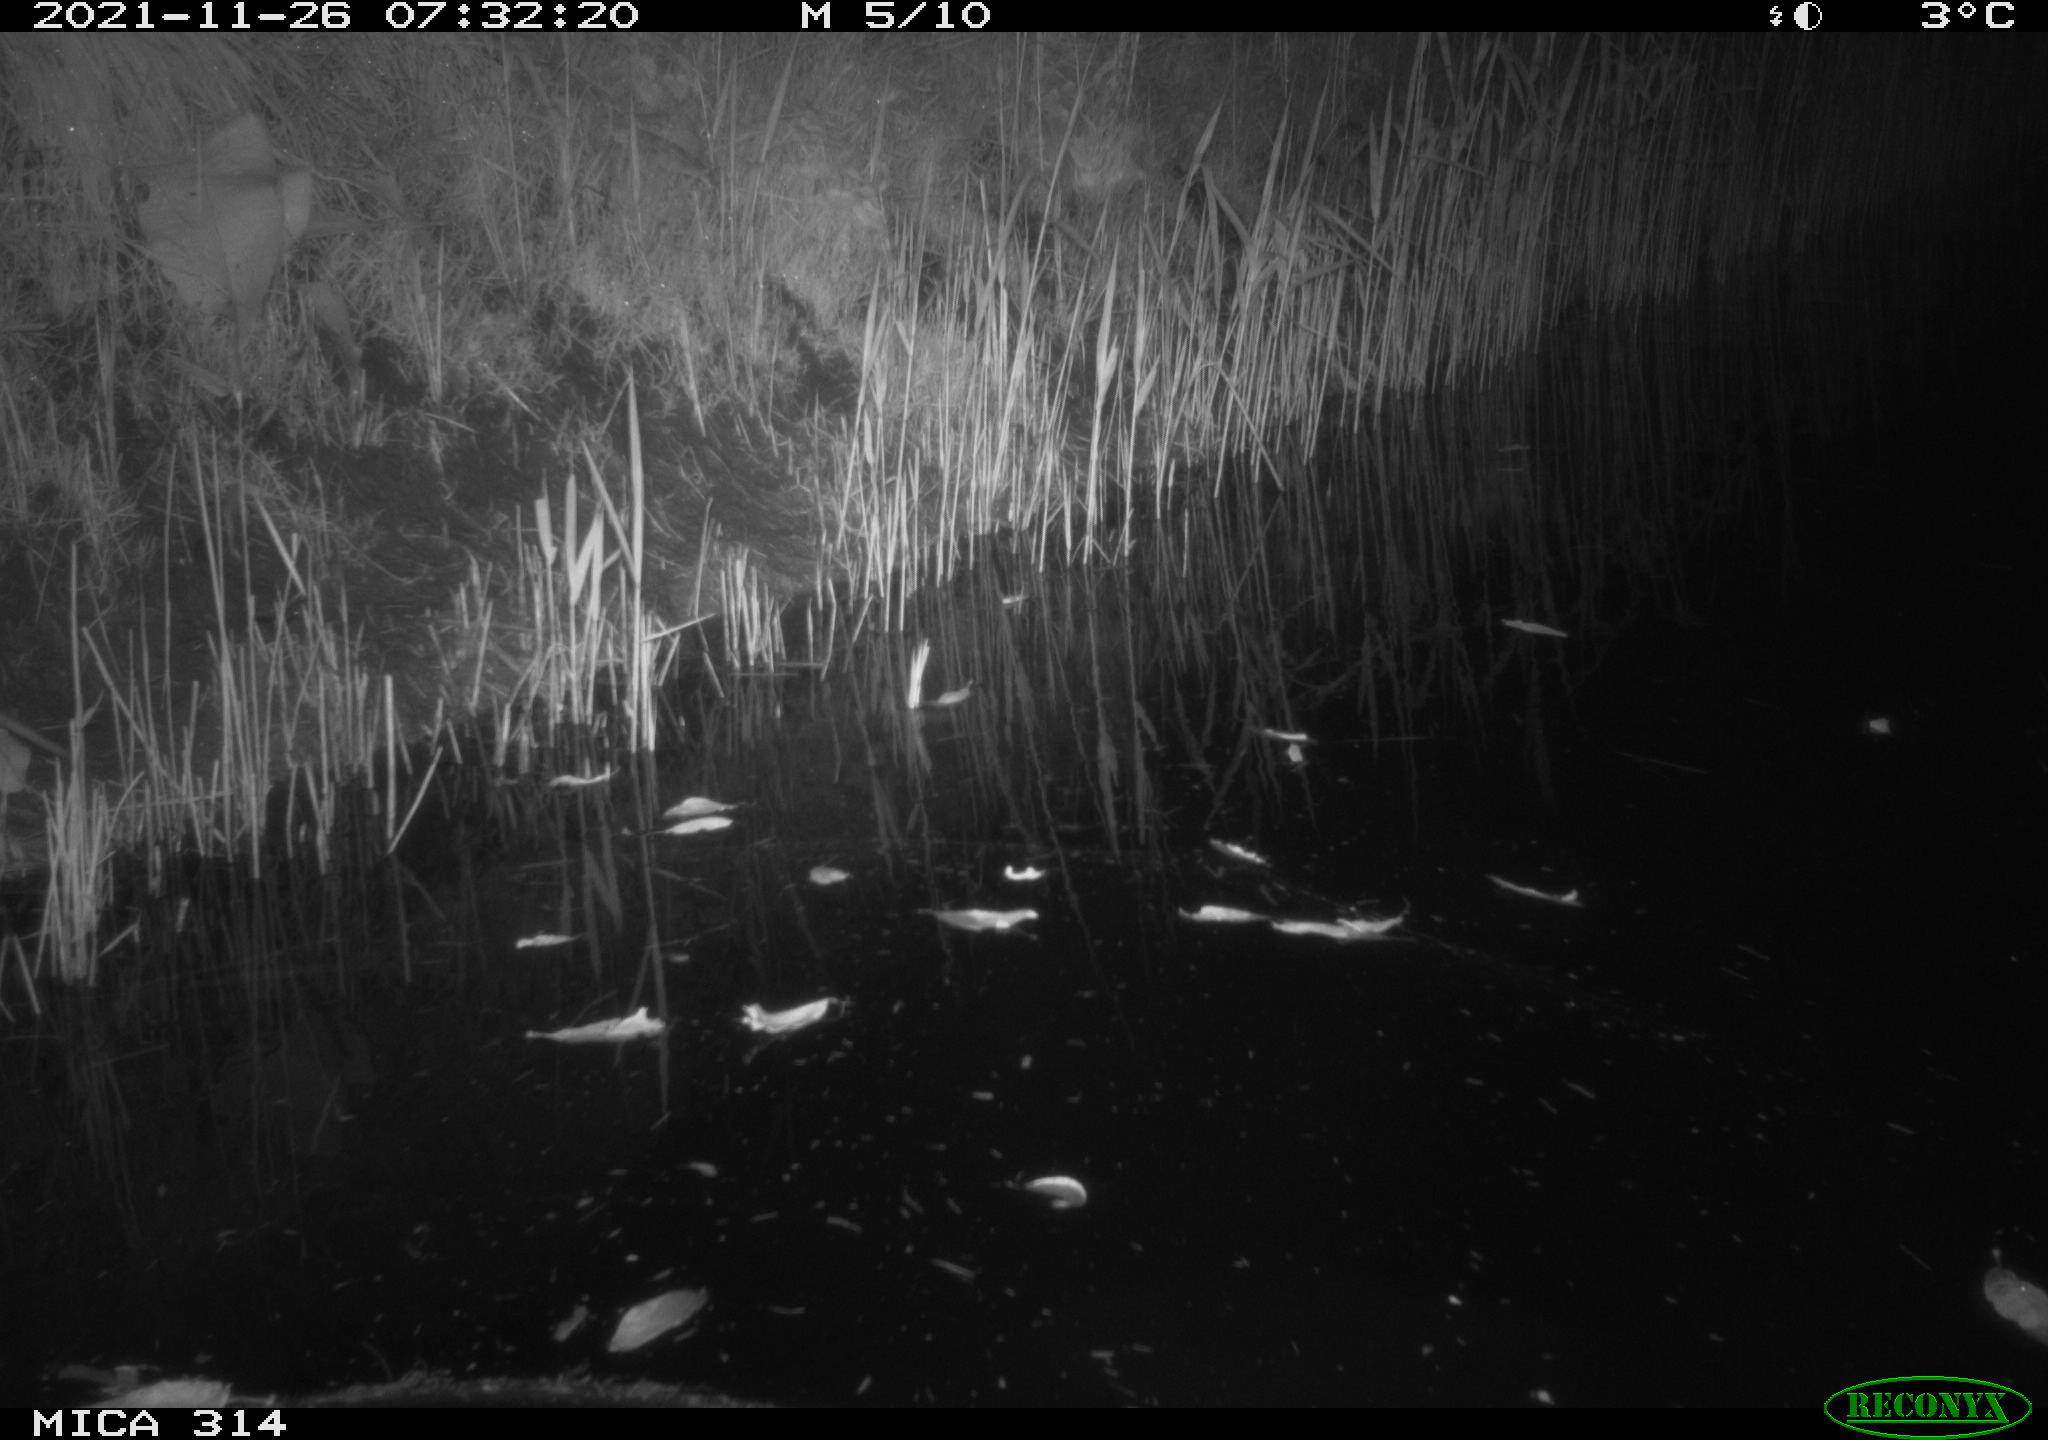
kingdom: Animalia
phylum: Chordata
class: Mammalia
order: Rodentia
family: Muridae
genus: Rattus
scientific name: Rattus norvegicus
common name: Brown rat
